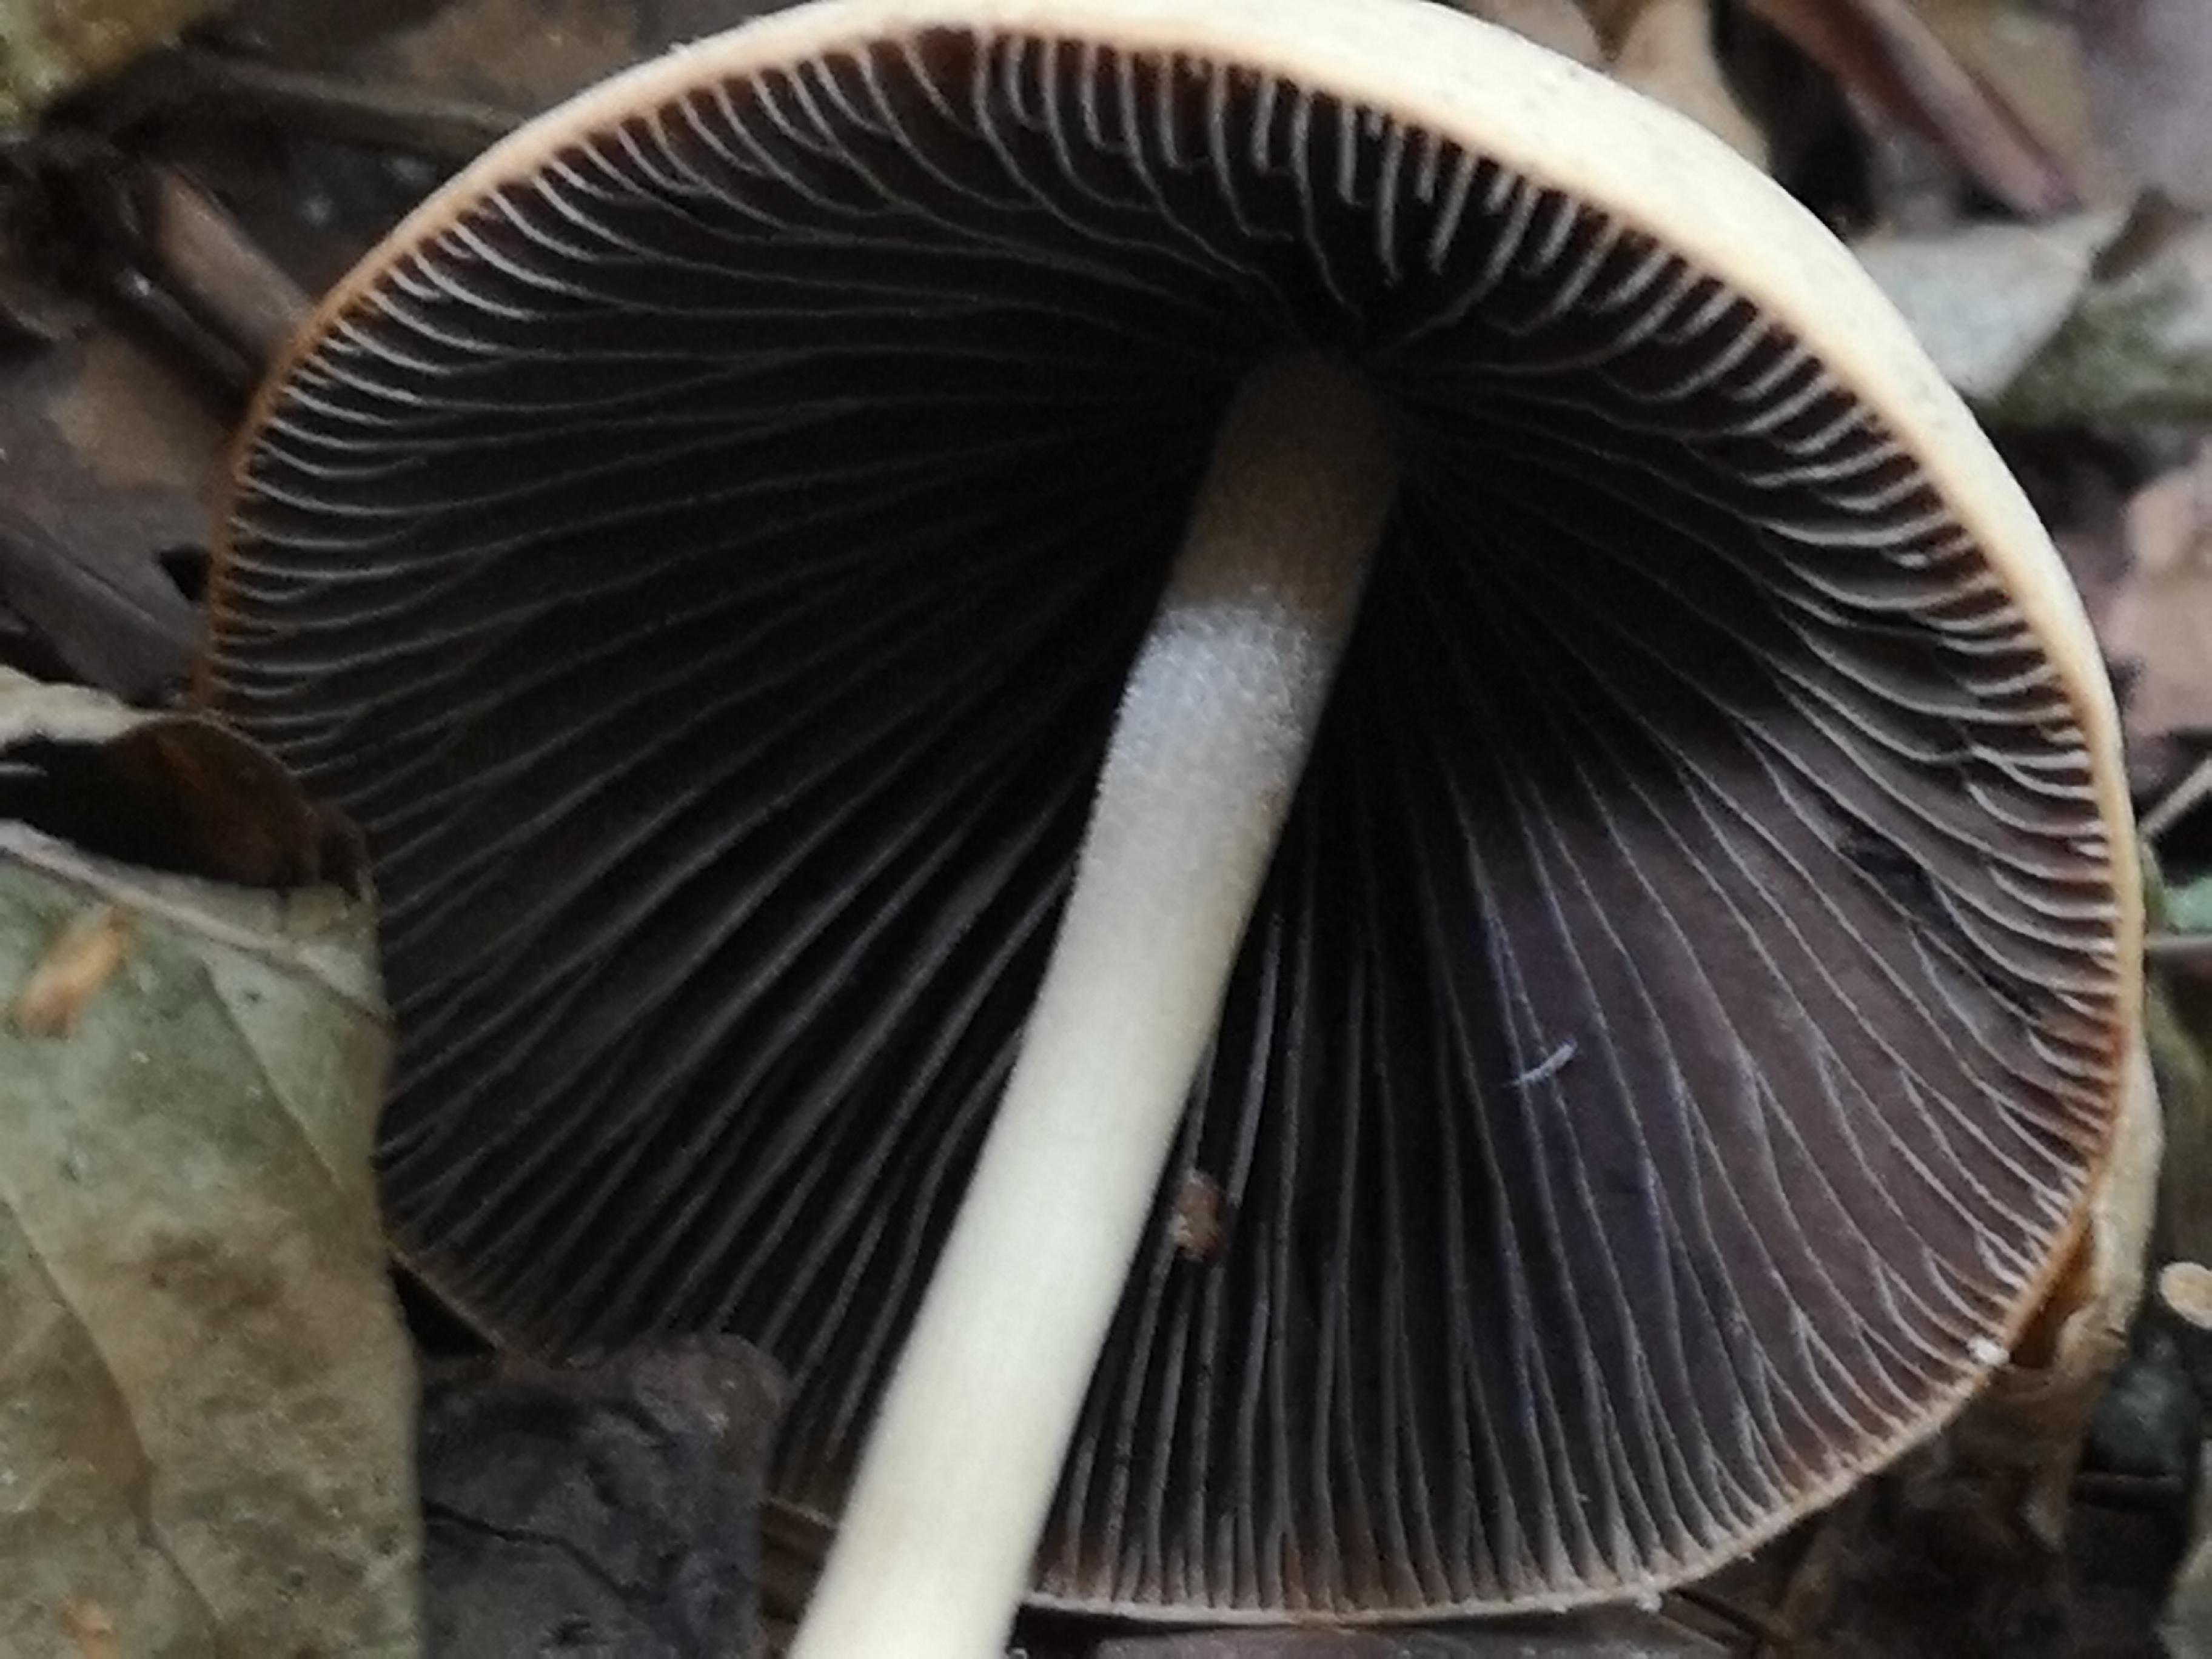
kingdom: Fungi
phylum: Basidiomycota
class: Agaricomycetes
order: Agaricales
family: Psathyrellaceae
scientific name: Psathyrellaceae
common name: mørkhatfamilien
